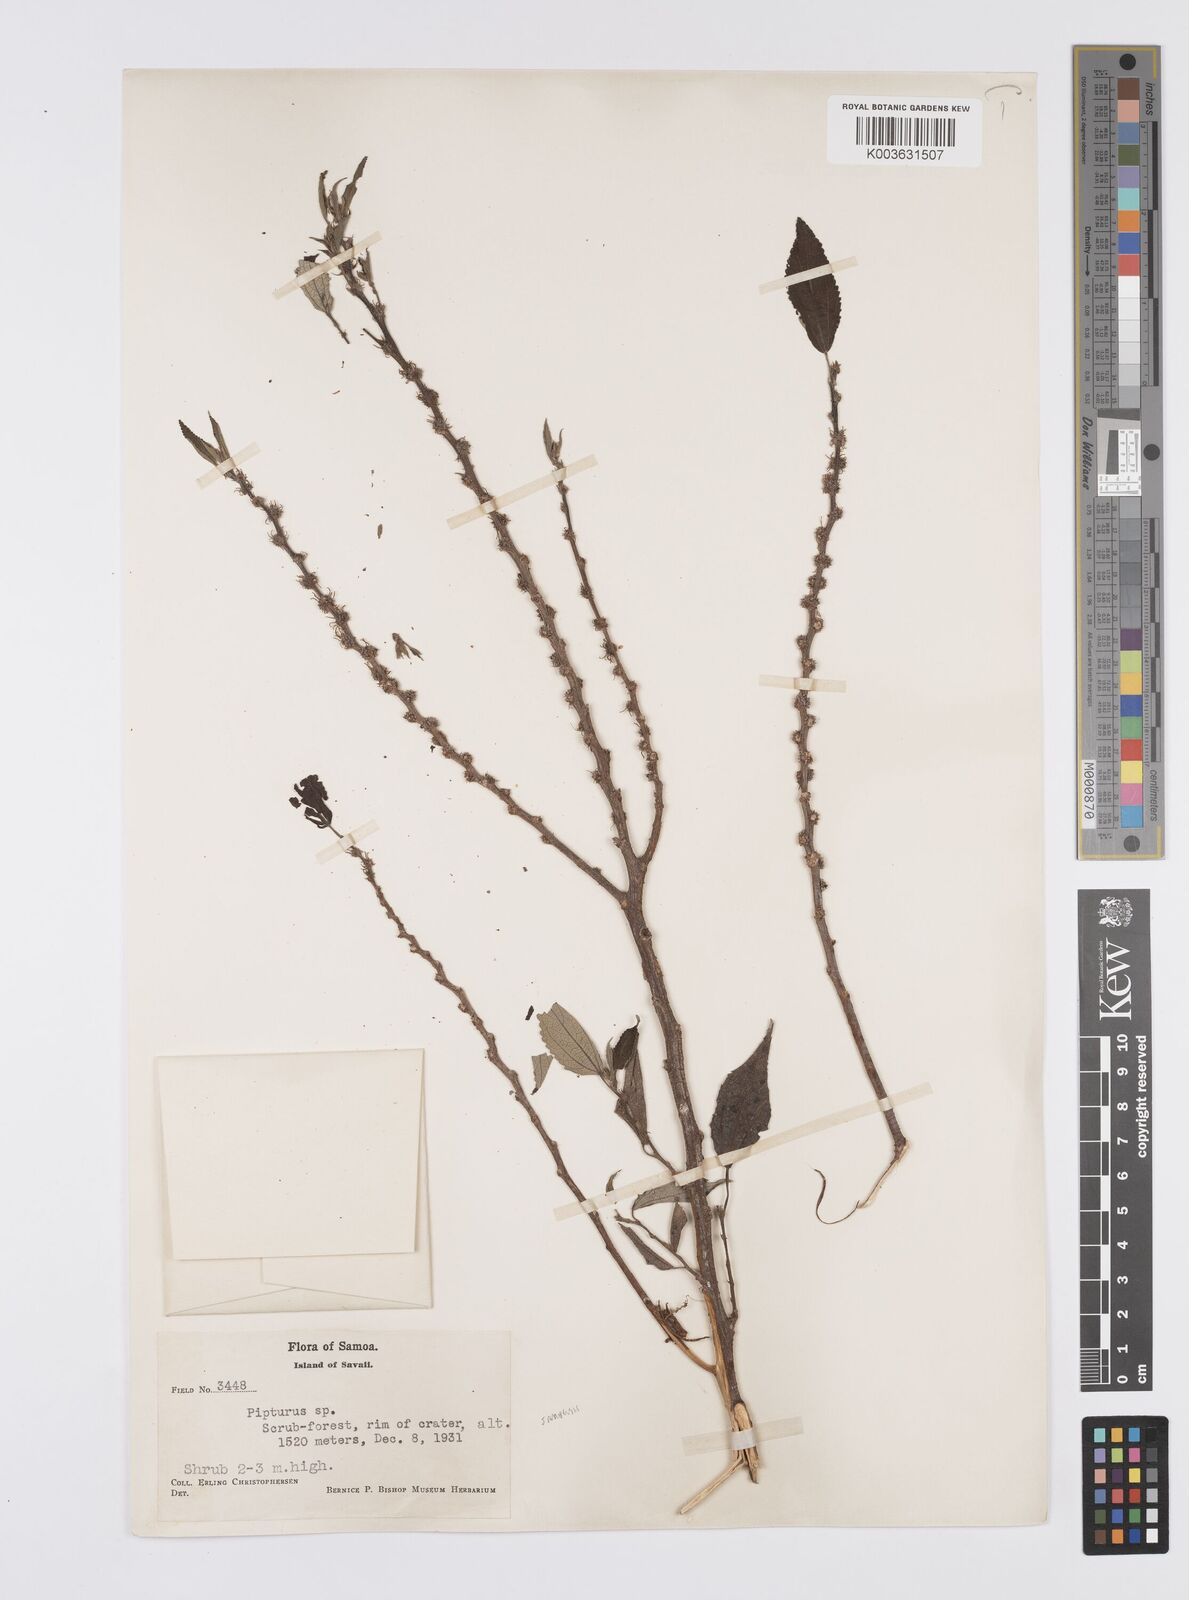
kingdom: Plantae
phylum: Tracheophyta
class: Magnoliopsida
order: Rosales
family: Urticaceae
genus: Pipturus
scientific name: Pipturus viridis
